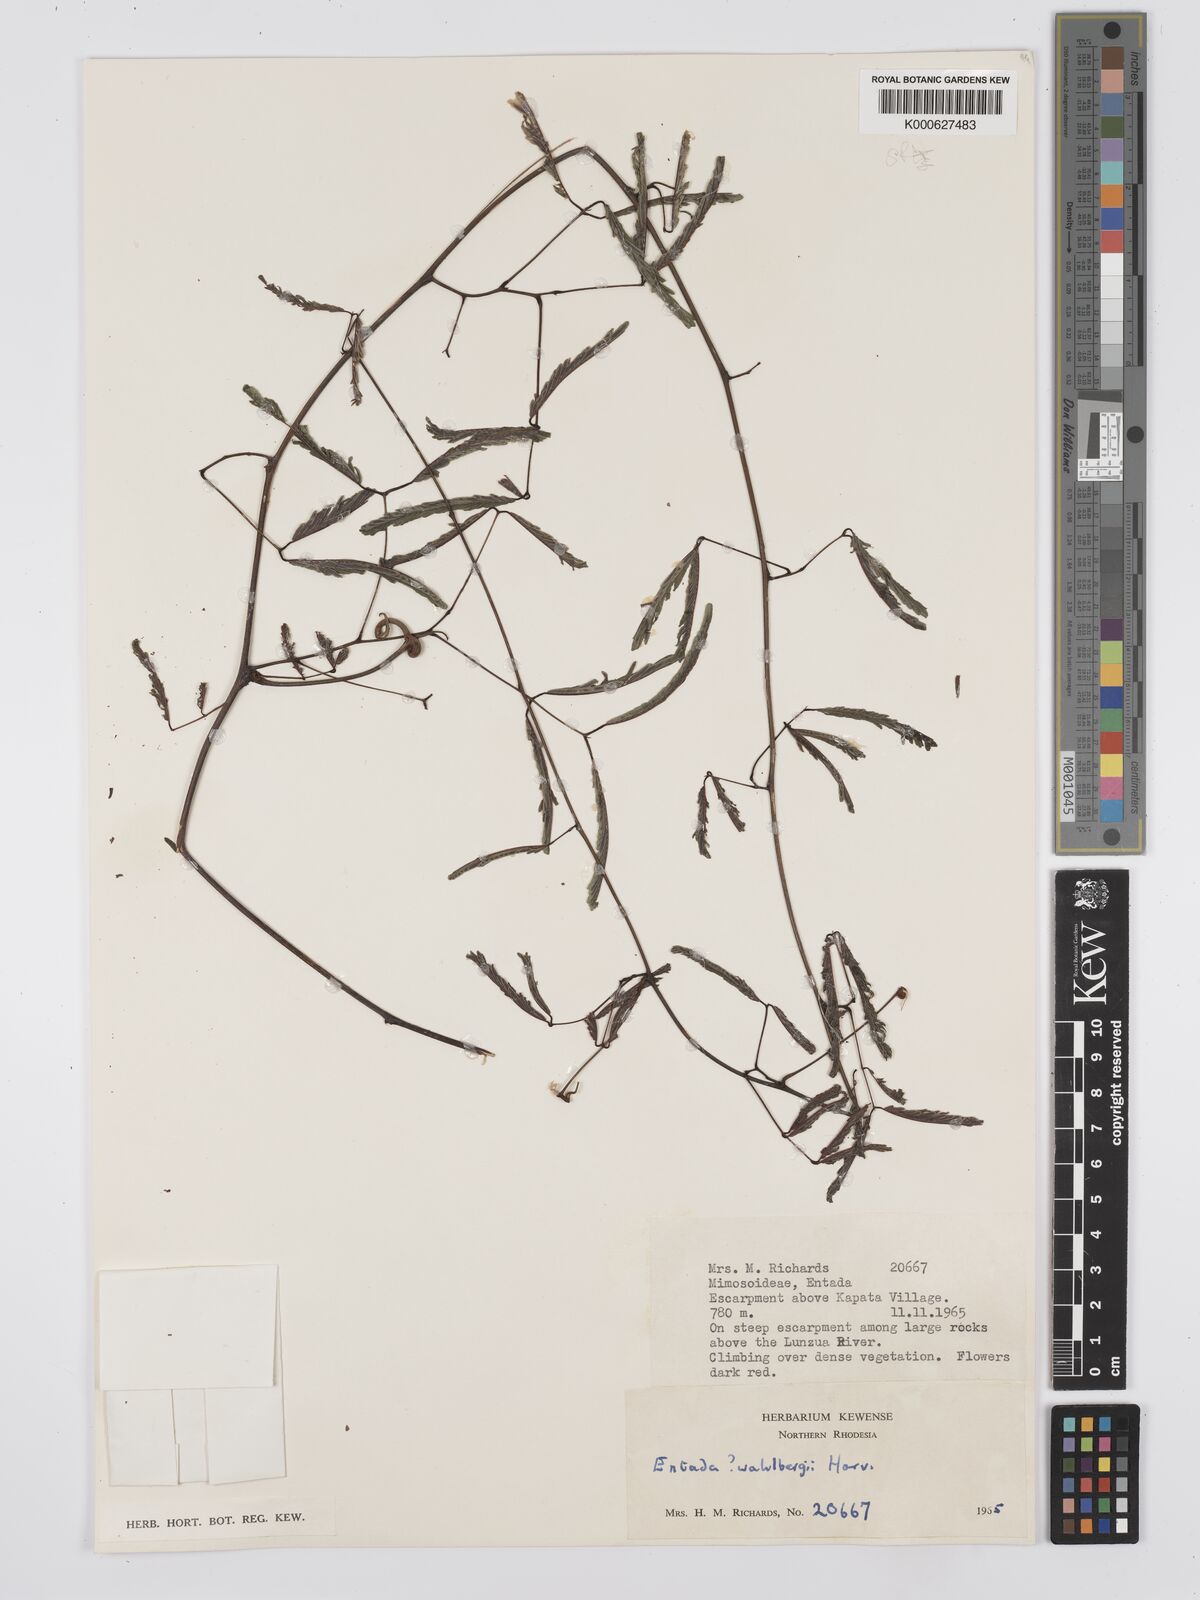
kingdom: Plantae
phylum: Tracheophyta
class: Magnoliopsida
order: Fabales
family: Fabaceae
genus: Entada
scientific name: Entada nudiflora
